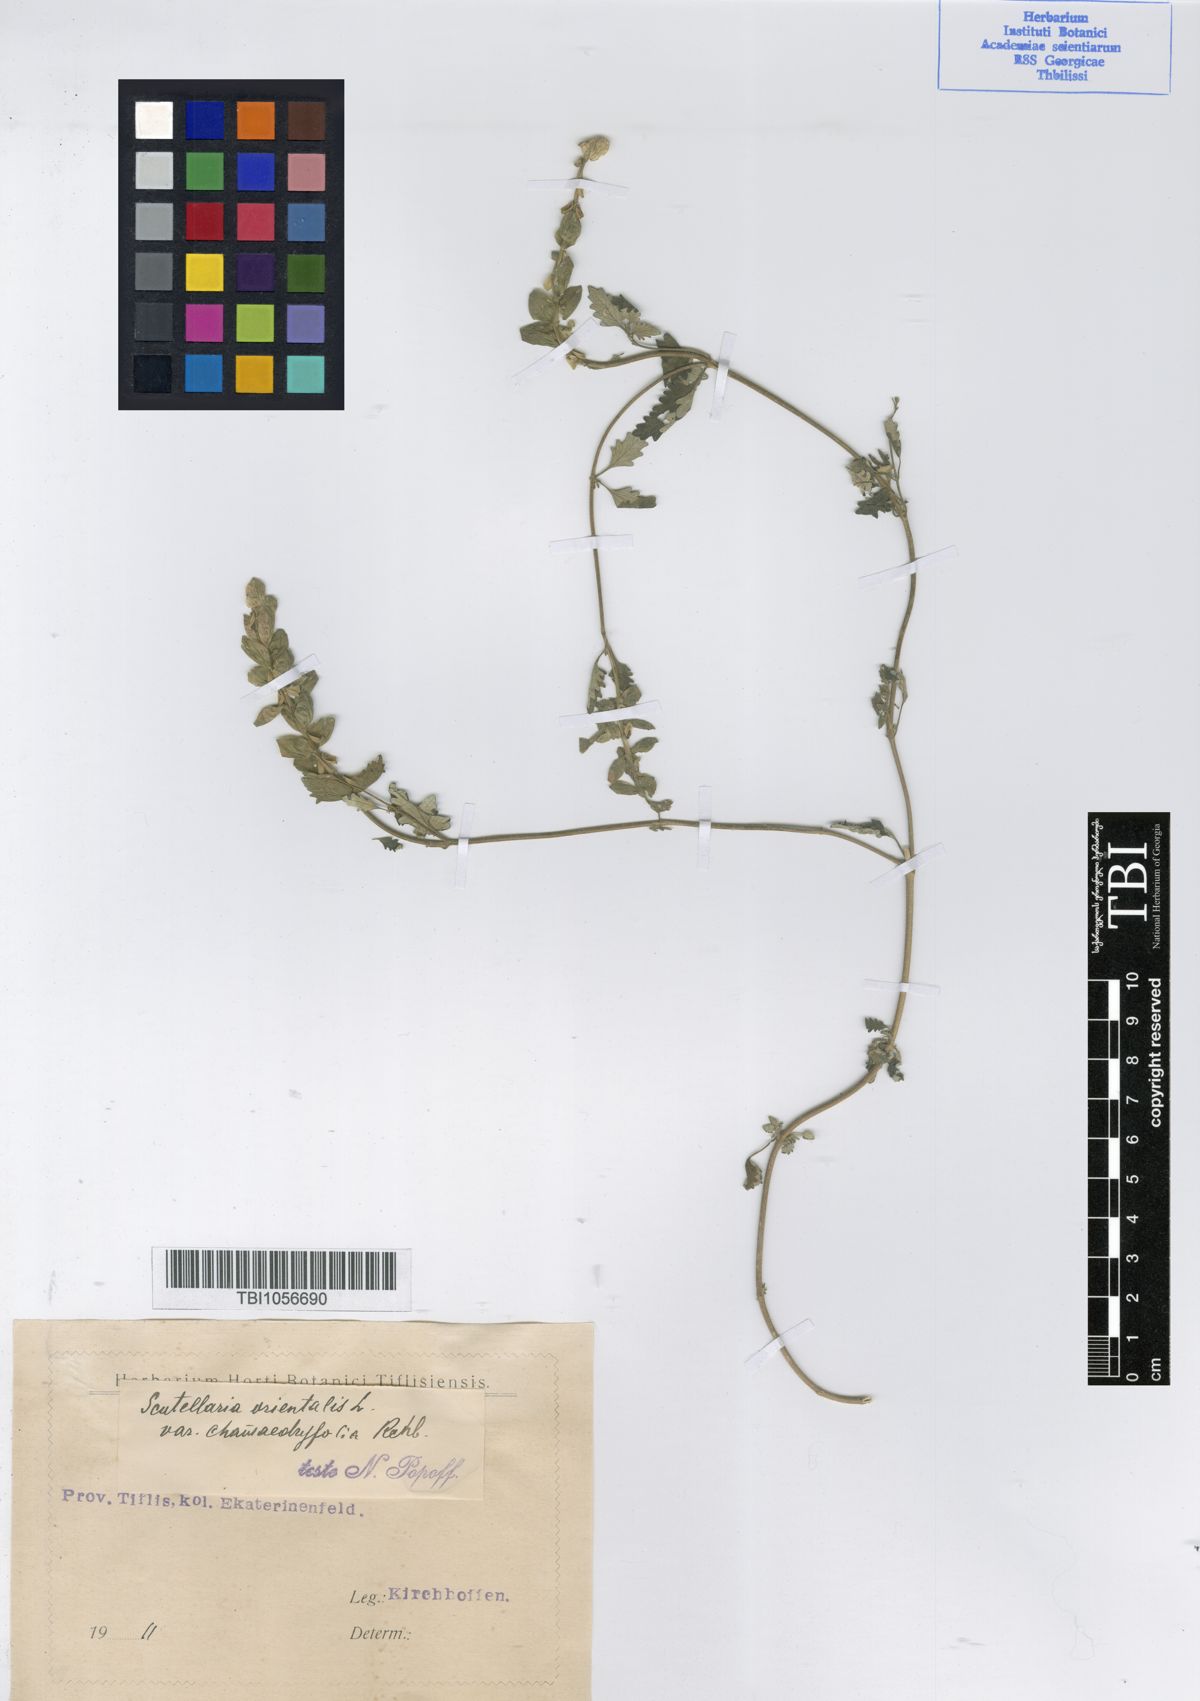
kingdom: Plantae
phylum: Tracheophyta
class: Magnoliopsida
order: Lamiales
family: Lamiaceae
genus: Scutellaria
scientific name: Scutellaria orientalis
